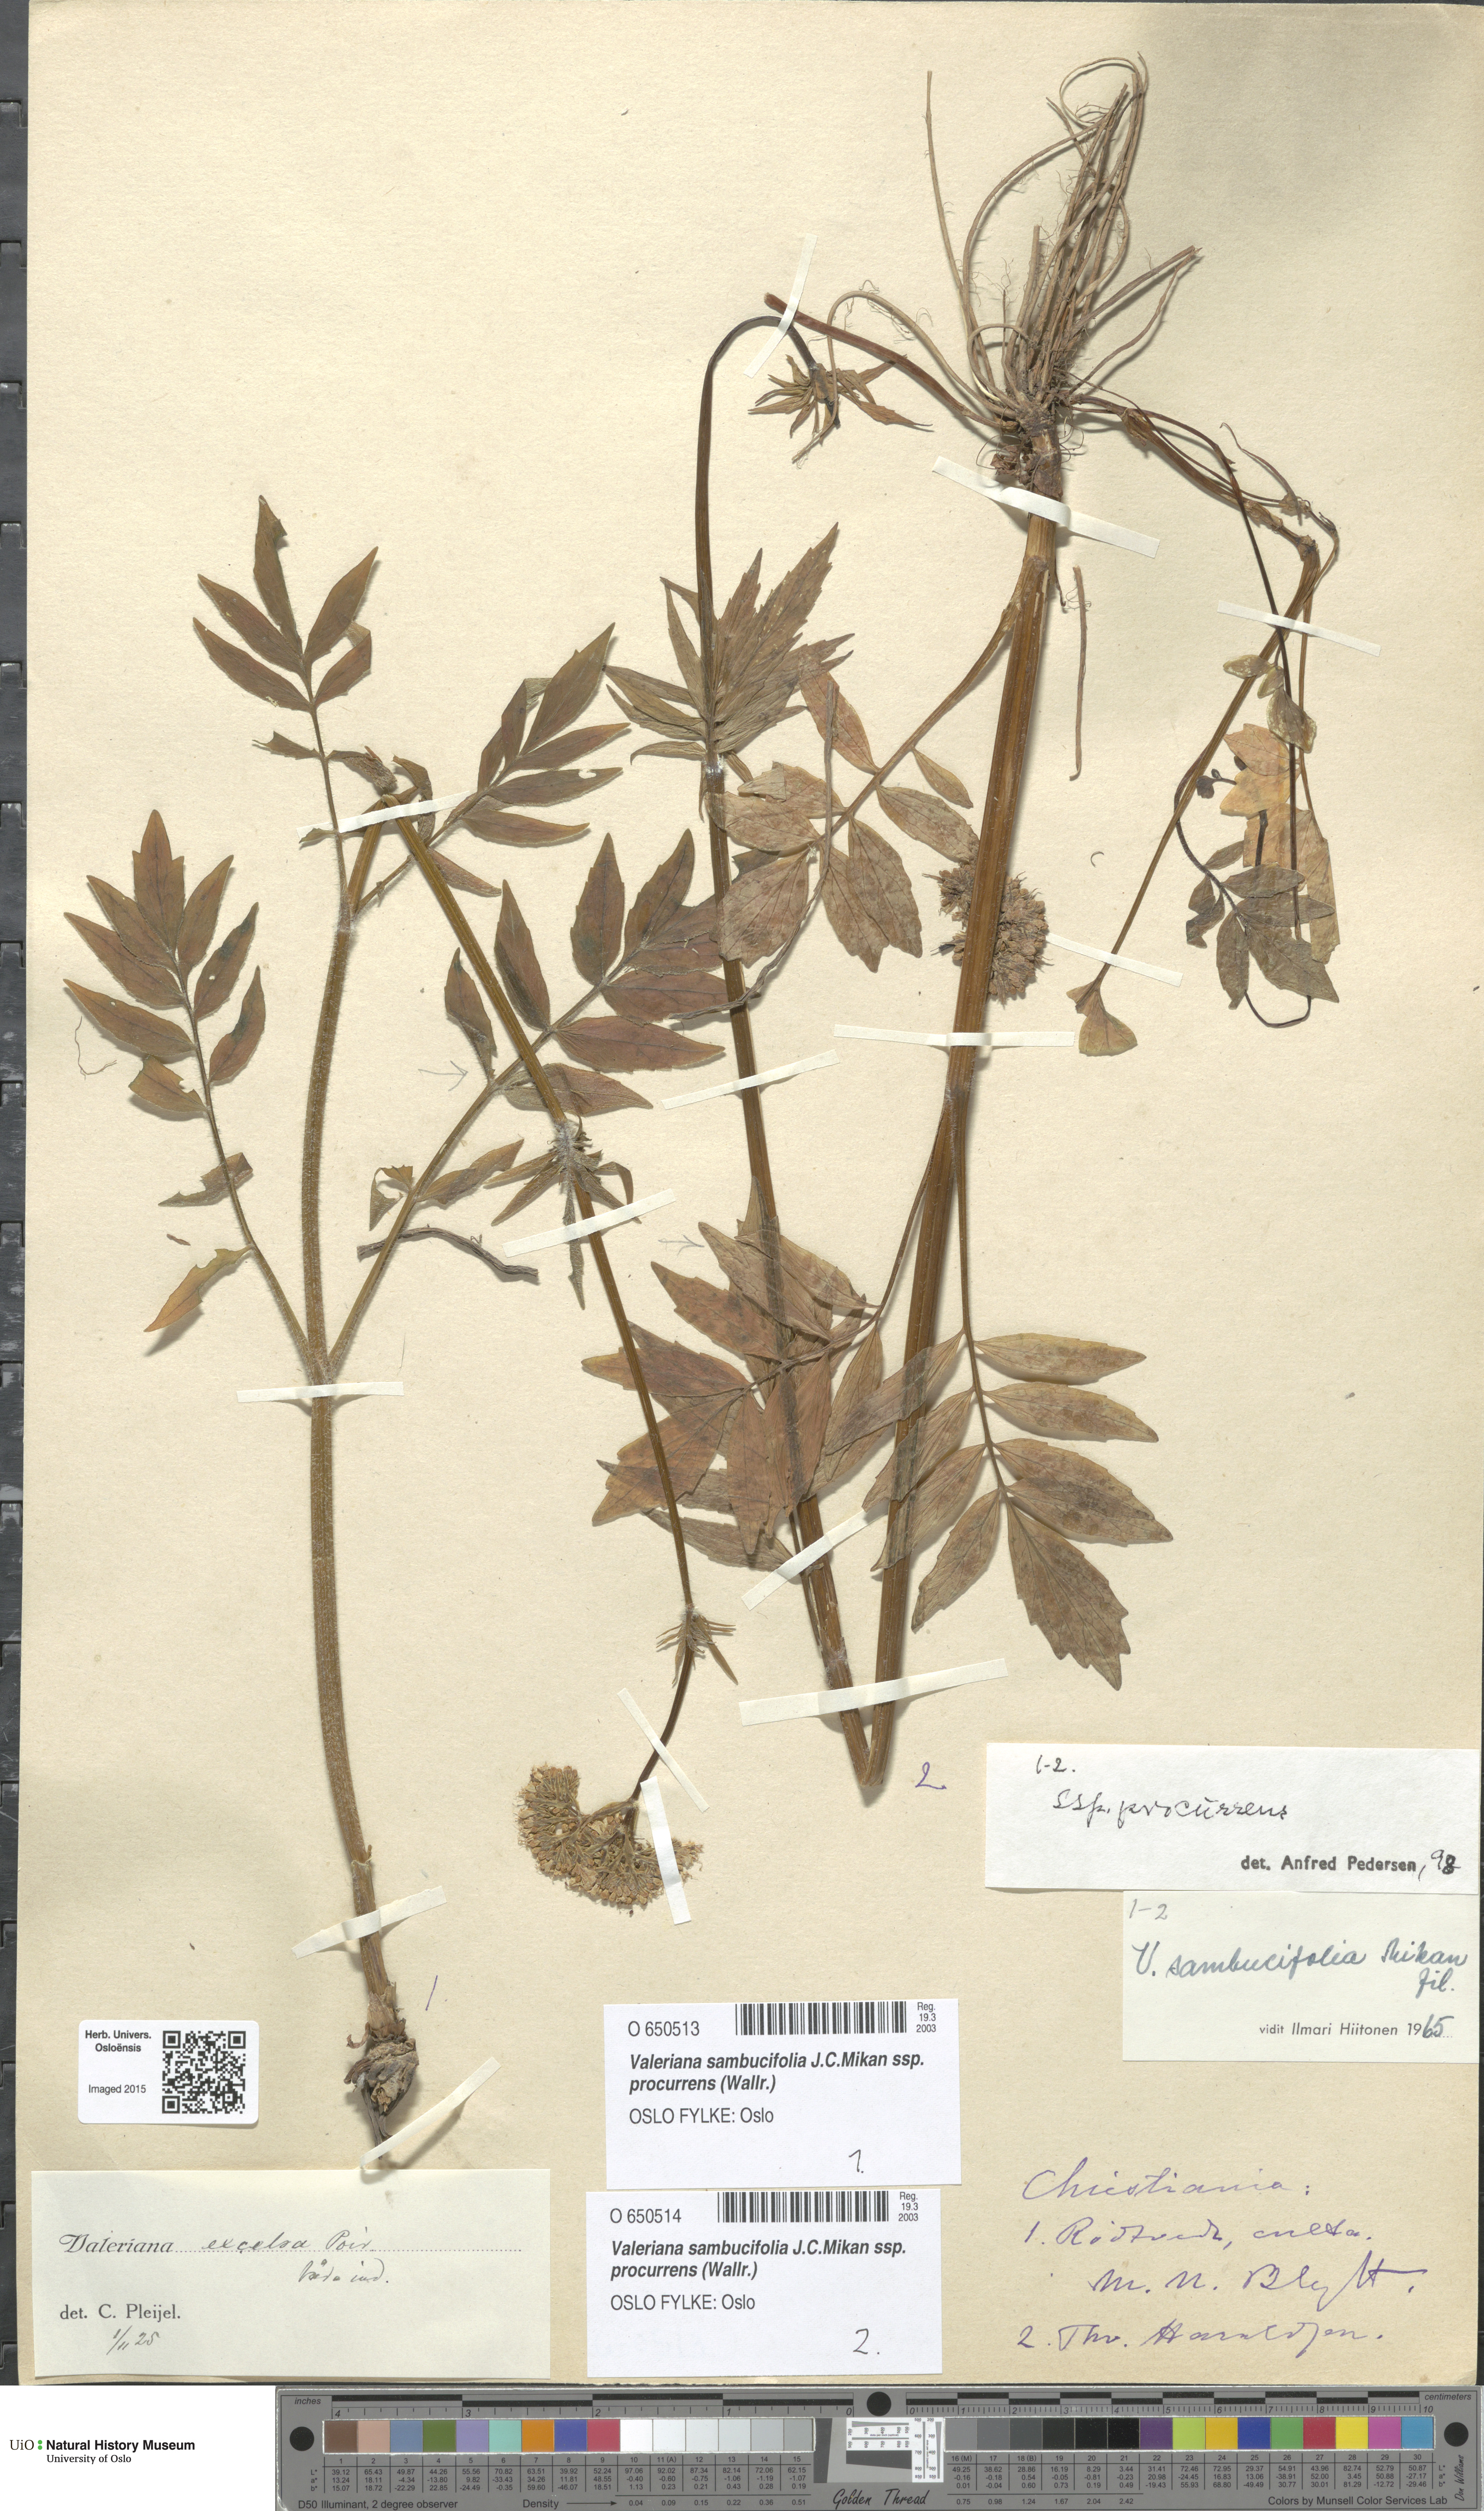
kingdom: Plantae
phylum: Tracheophyta
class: Magnoliopsida
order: Dipsacales
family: Caprifoliaceae
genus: Valeriana
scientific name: Valeriana excelsa
